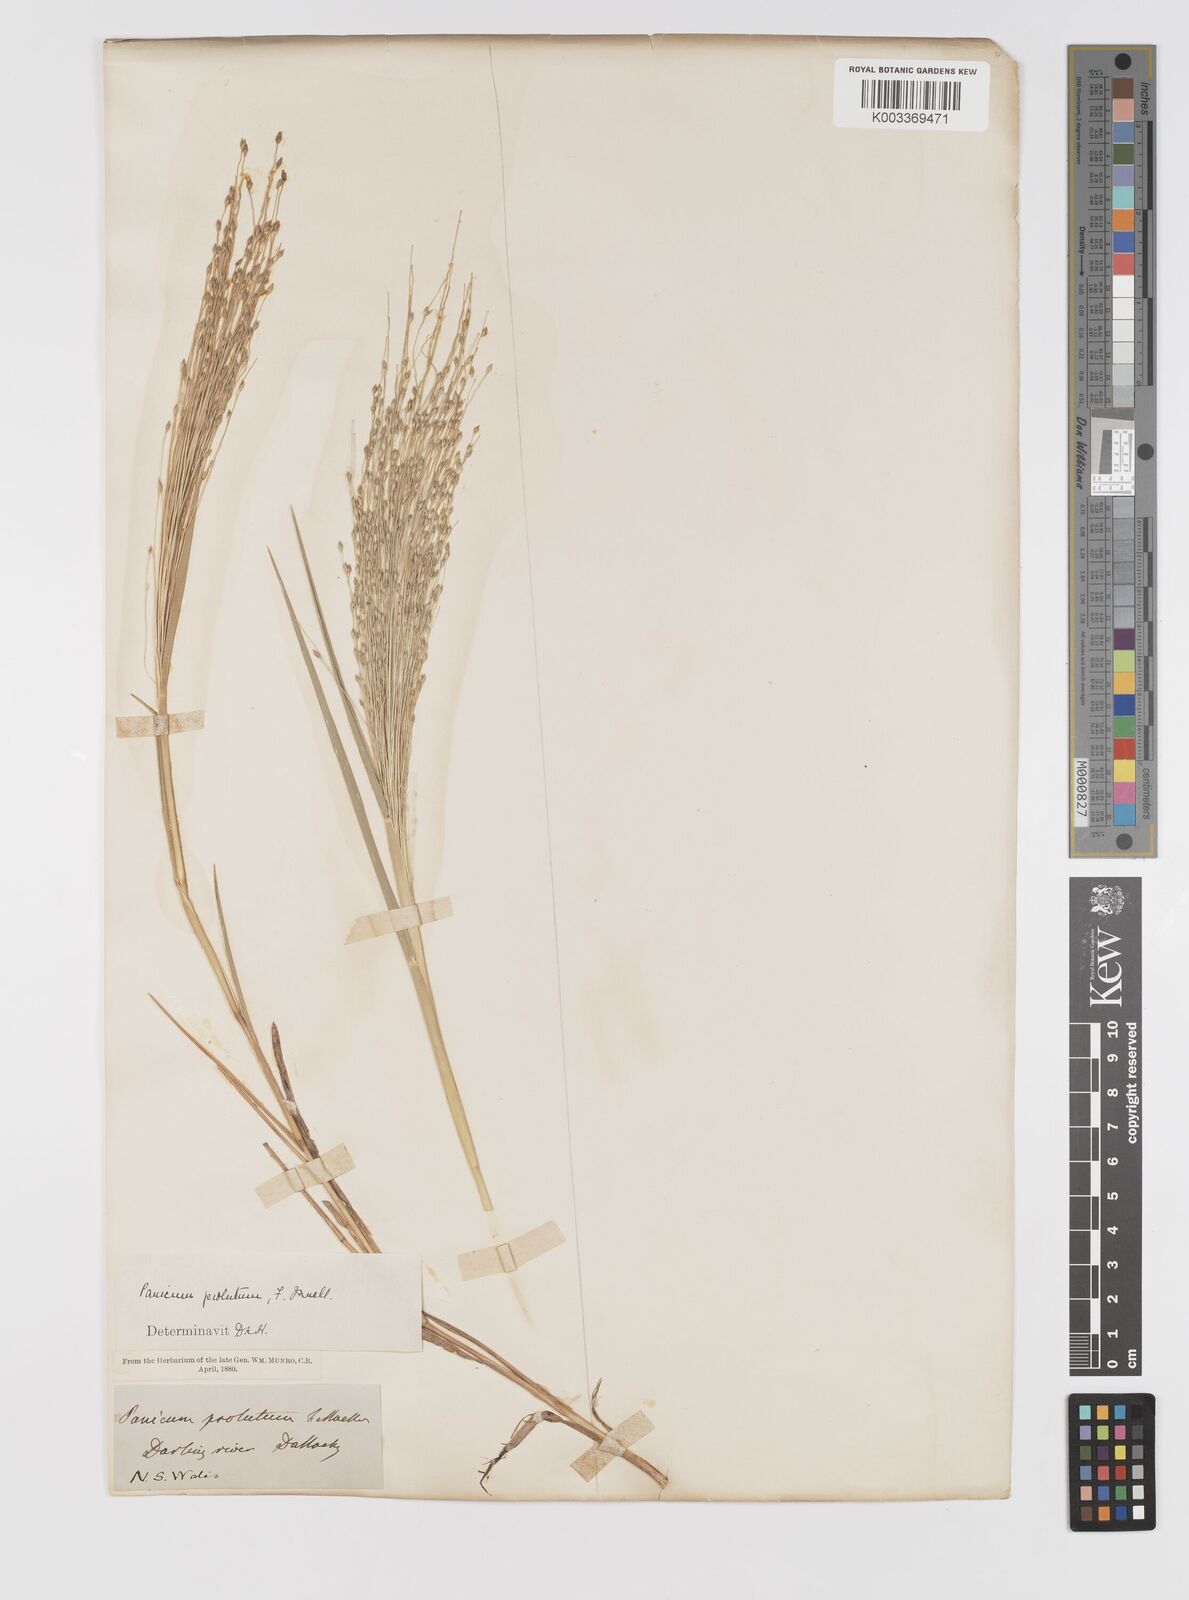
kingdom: Plantae
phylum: Tracheophyta
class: Liliopsida
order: Poales
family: Poaceae
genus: Walwhalleya
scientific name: Walwhalleya proluta
